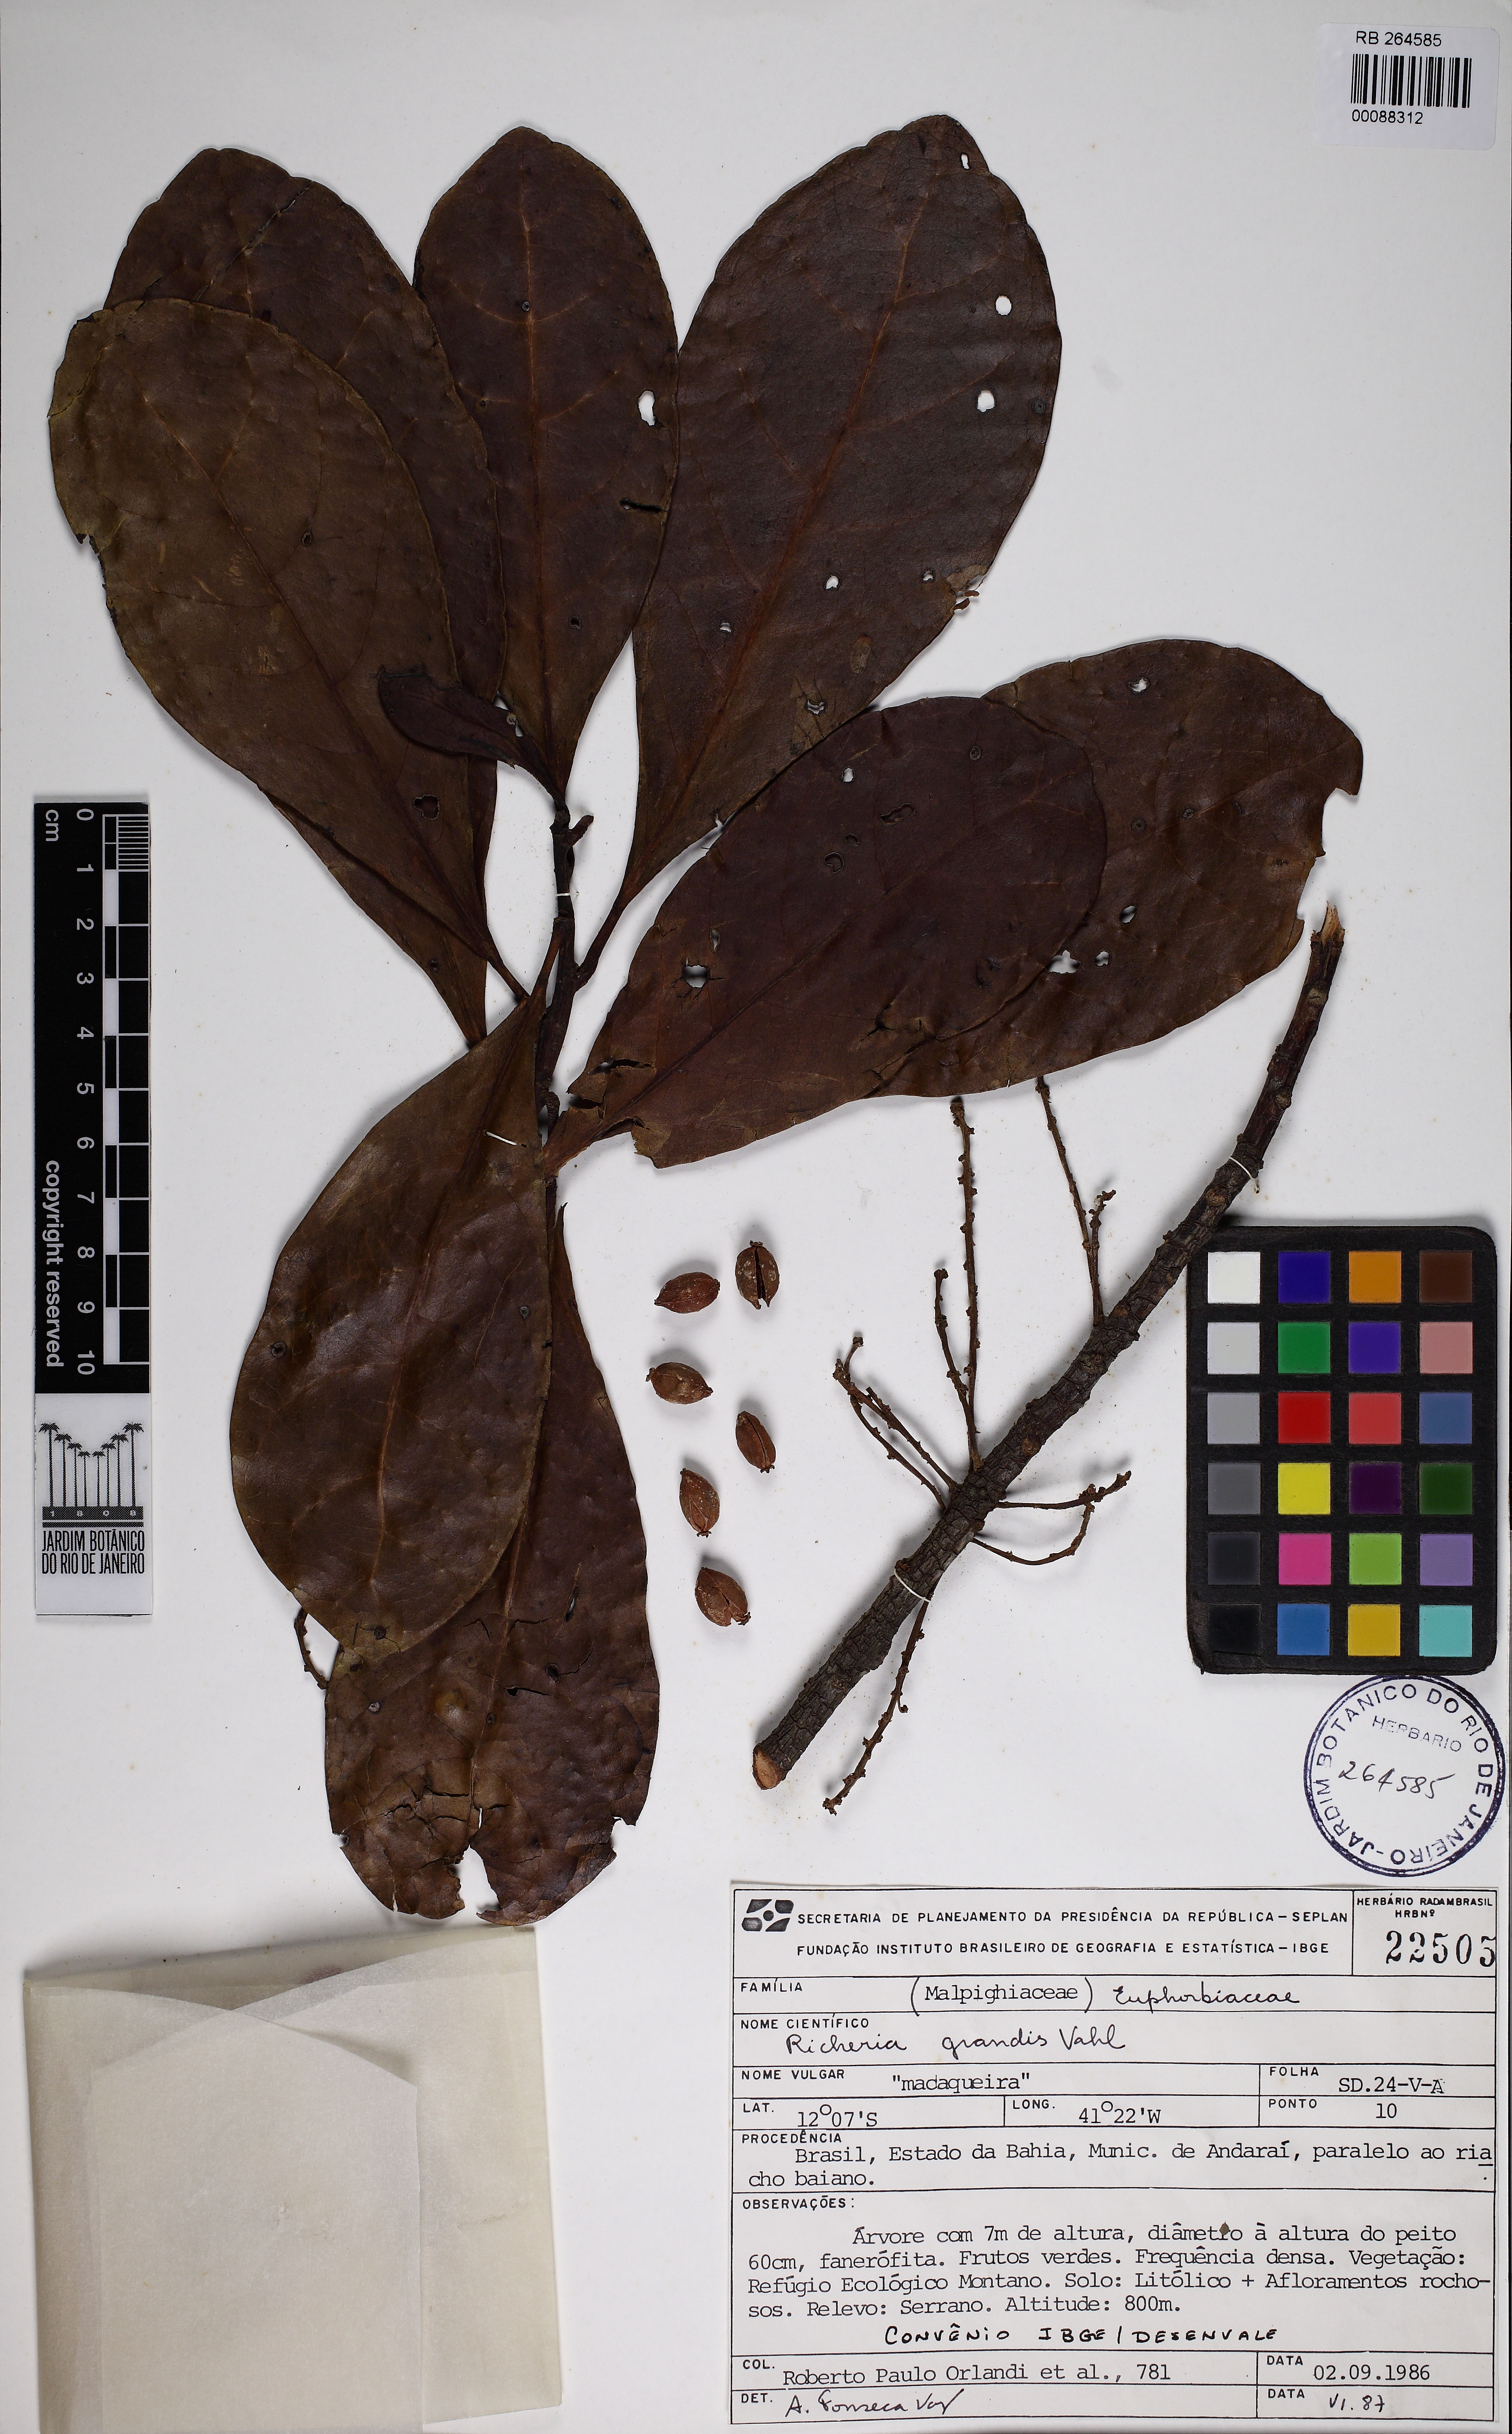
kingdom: Plantae
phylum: Tracheophyta
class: Magnoliopsida
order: Malpighiales
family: Phyllanthaceae
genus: Richeria
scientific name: Richeria grandis
